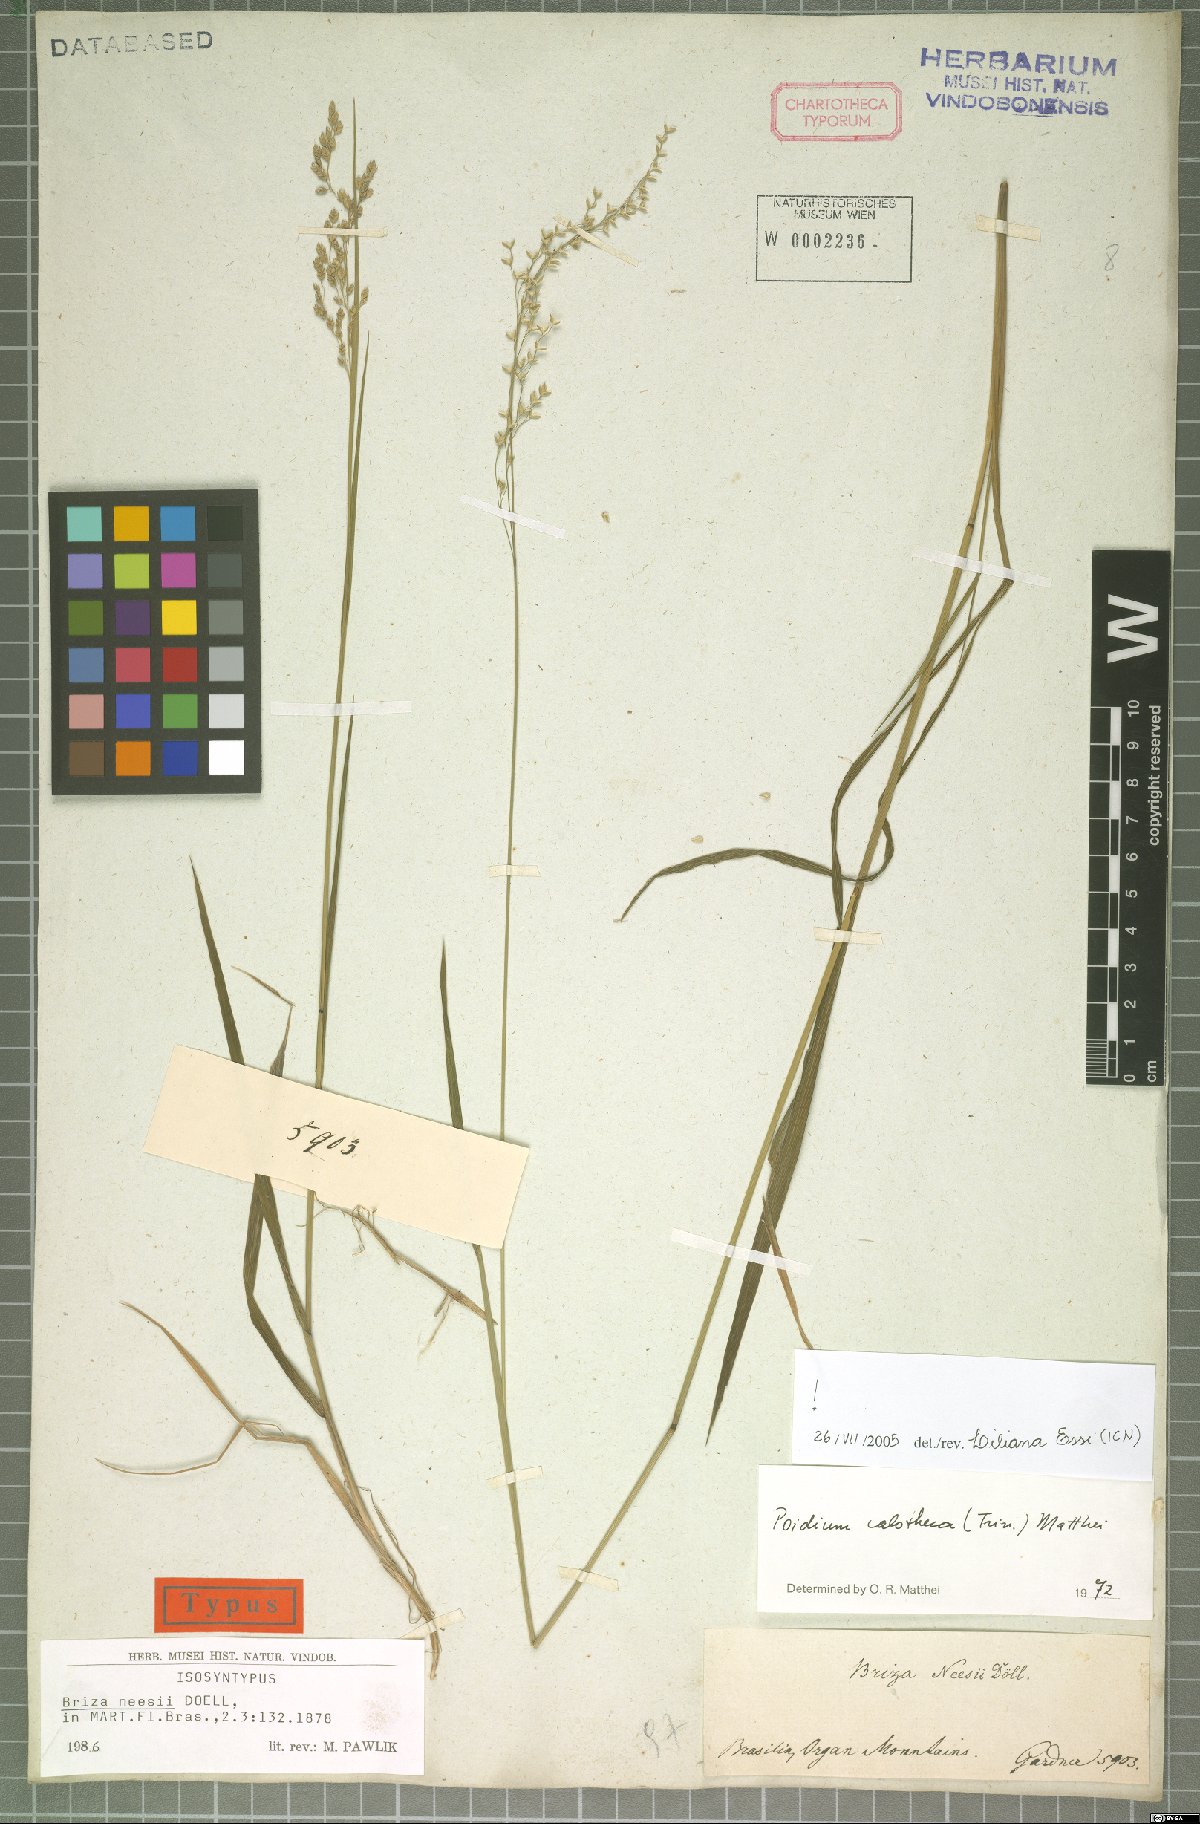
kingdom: Plantae
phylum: Tracheophyta
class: Liliopsida
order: Poales
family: Poaceae
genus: Poidium
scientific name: Poidium calotheca
